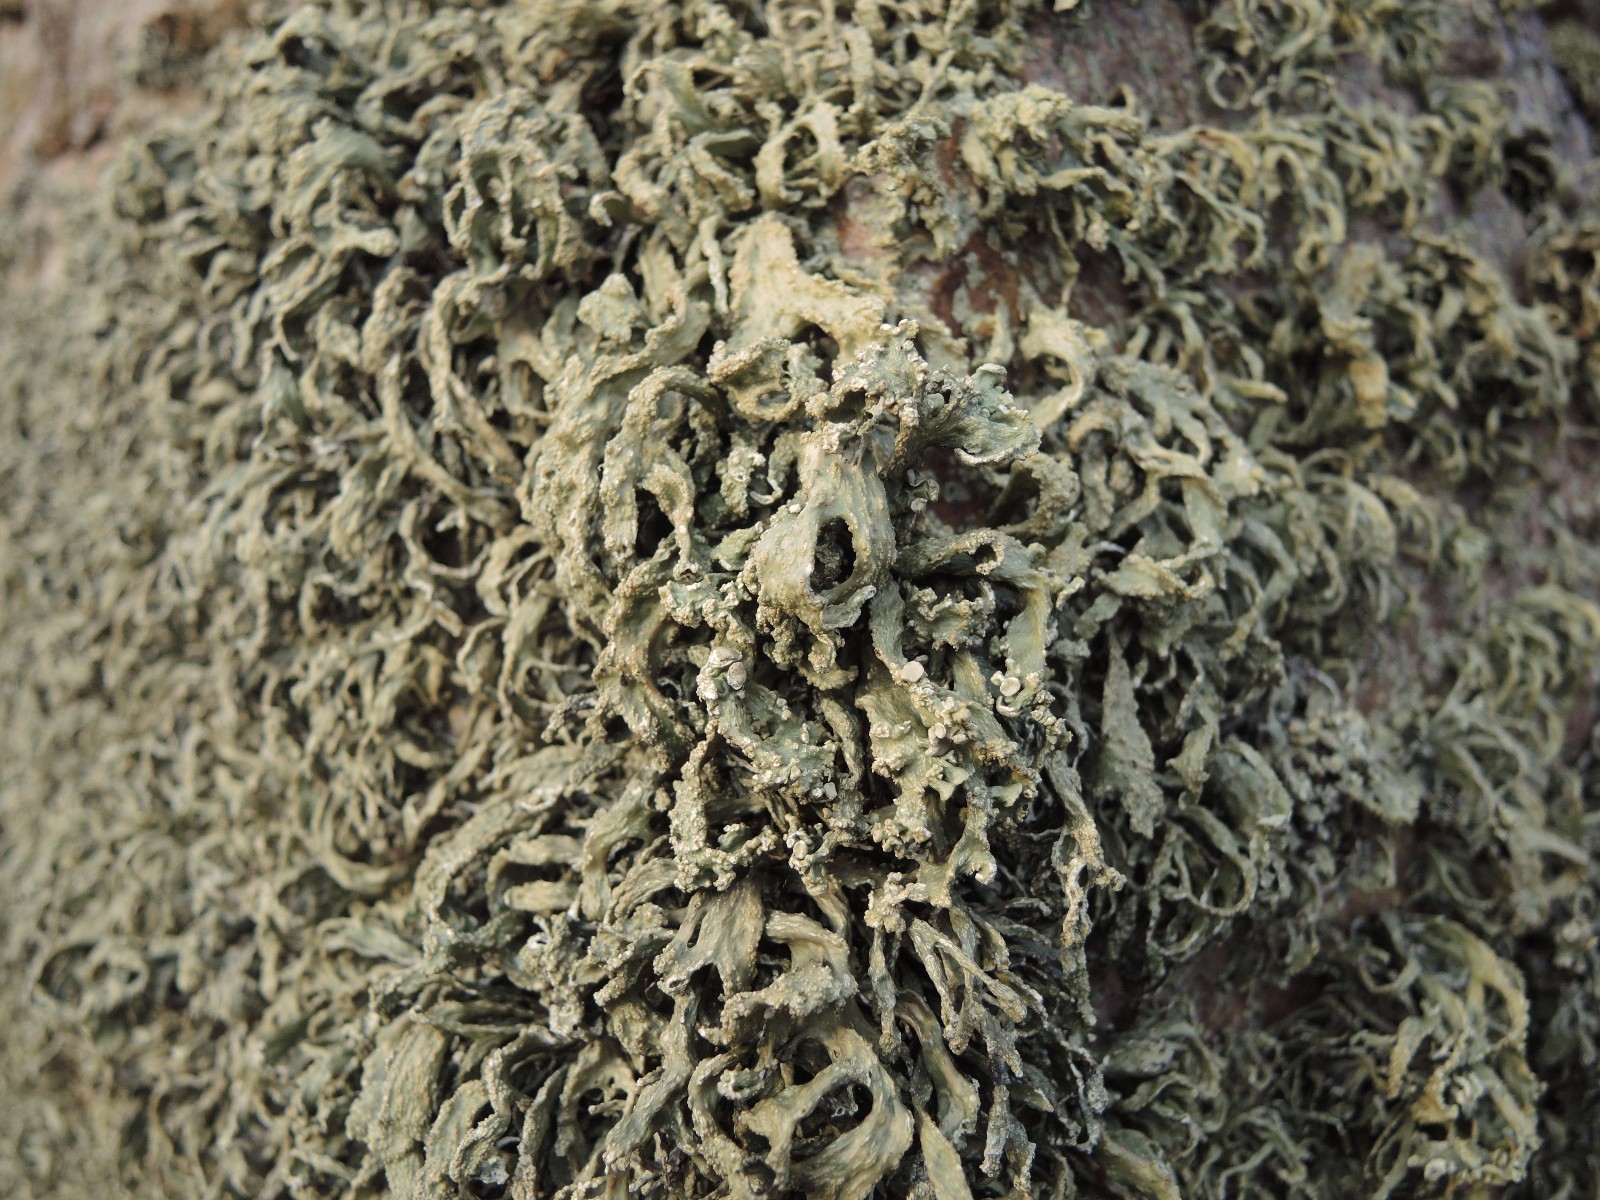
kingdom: Fungi
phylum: Ascomycota
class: Lecanoromycetes
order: Lecanorales
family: Ramalinaceae
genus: Ramalina
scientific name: Ramalina siliquosa
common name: klippe-grenlav
